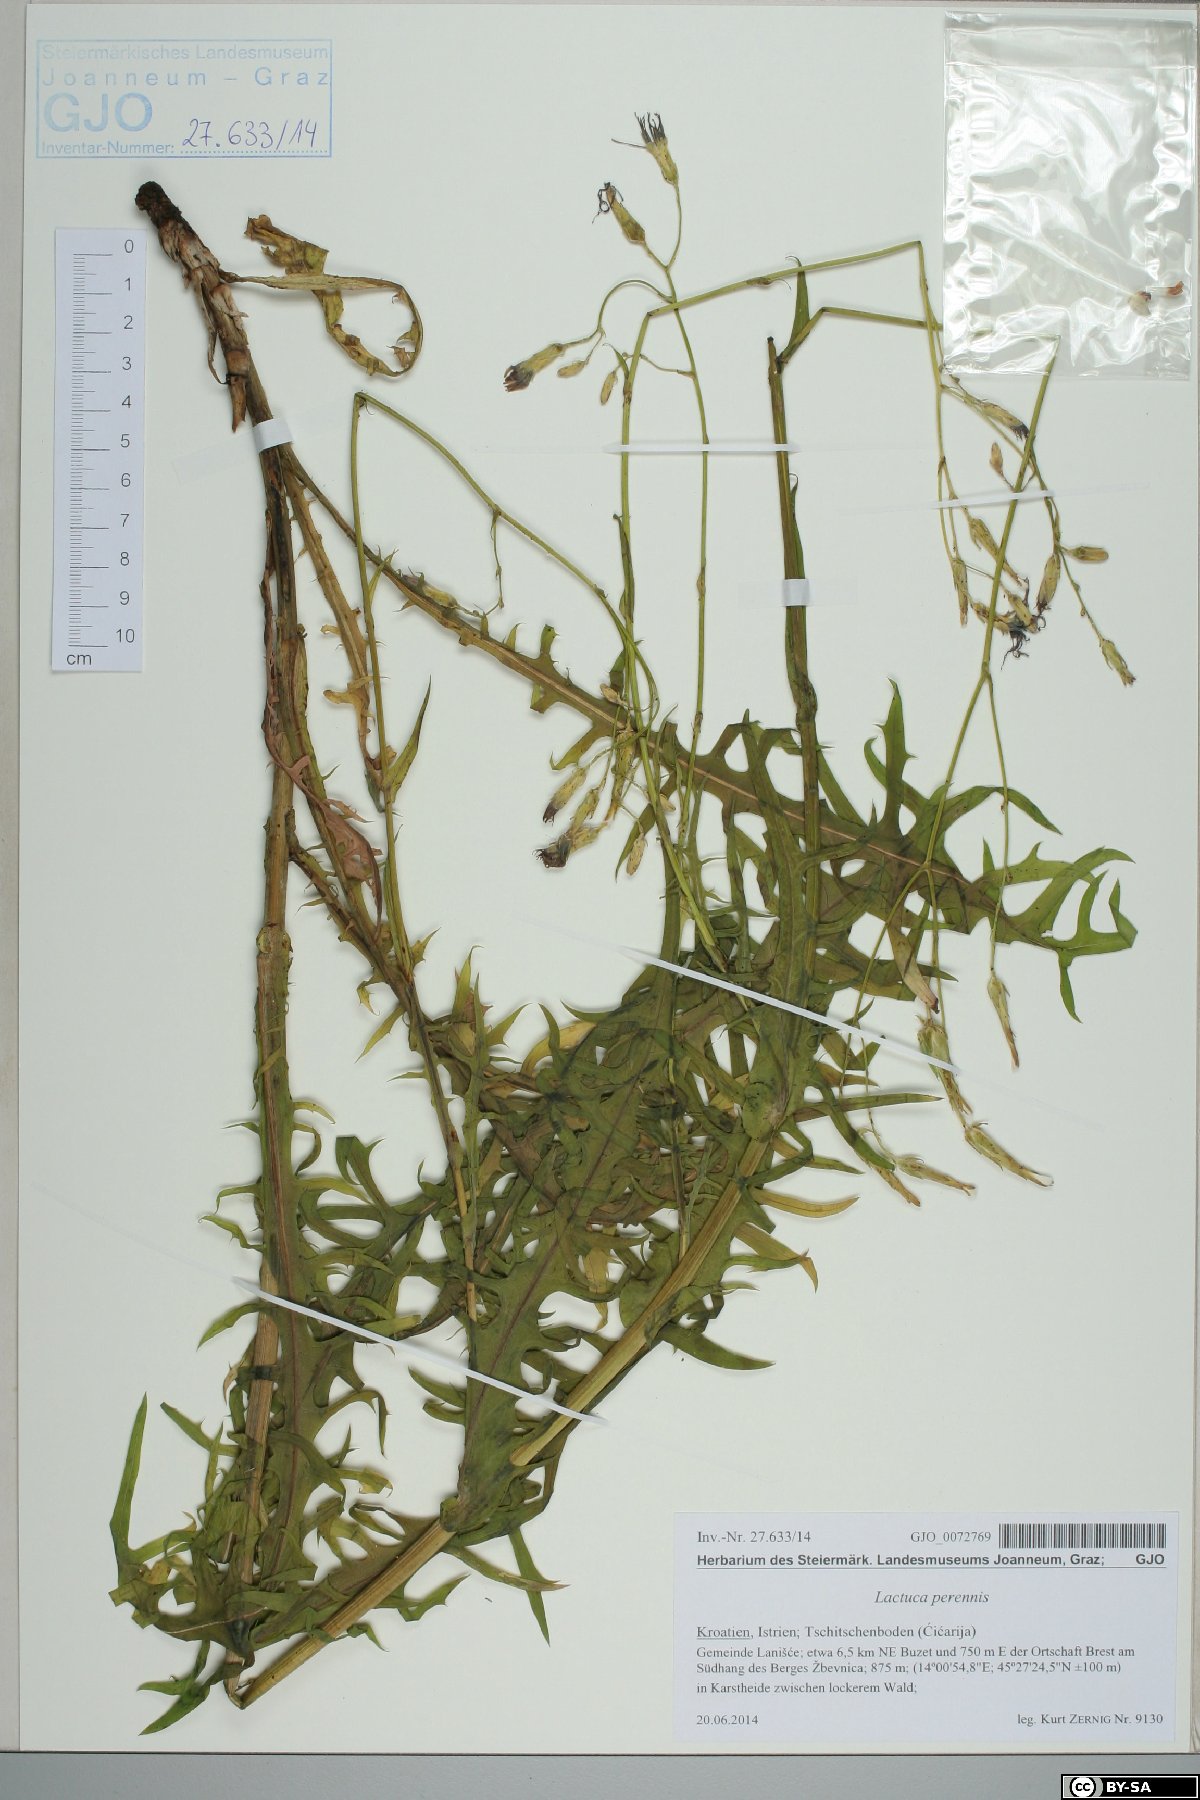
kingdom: Plantae
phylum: Tracheophyta
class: Magnoliopsida
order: Asterales
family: Asteraceae
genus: Lactuca
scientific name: Lactuca perennis
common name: Mountain lettuce
